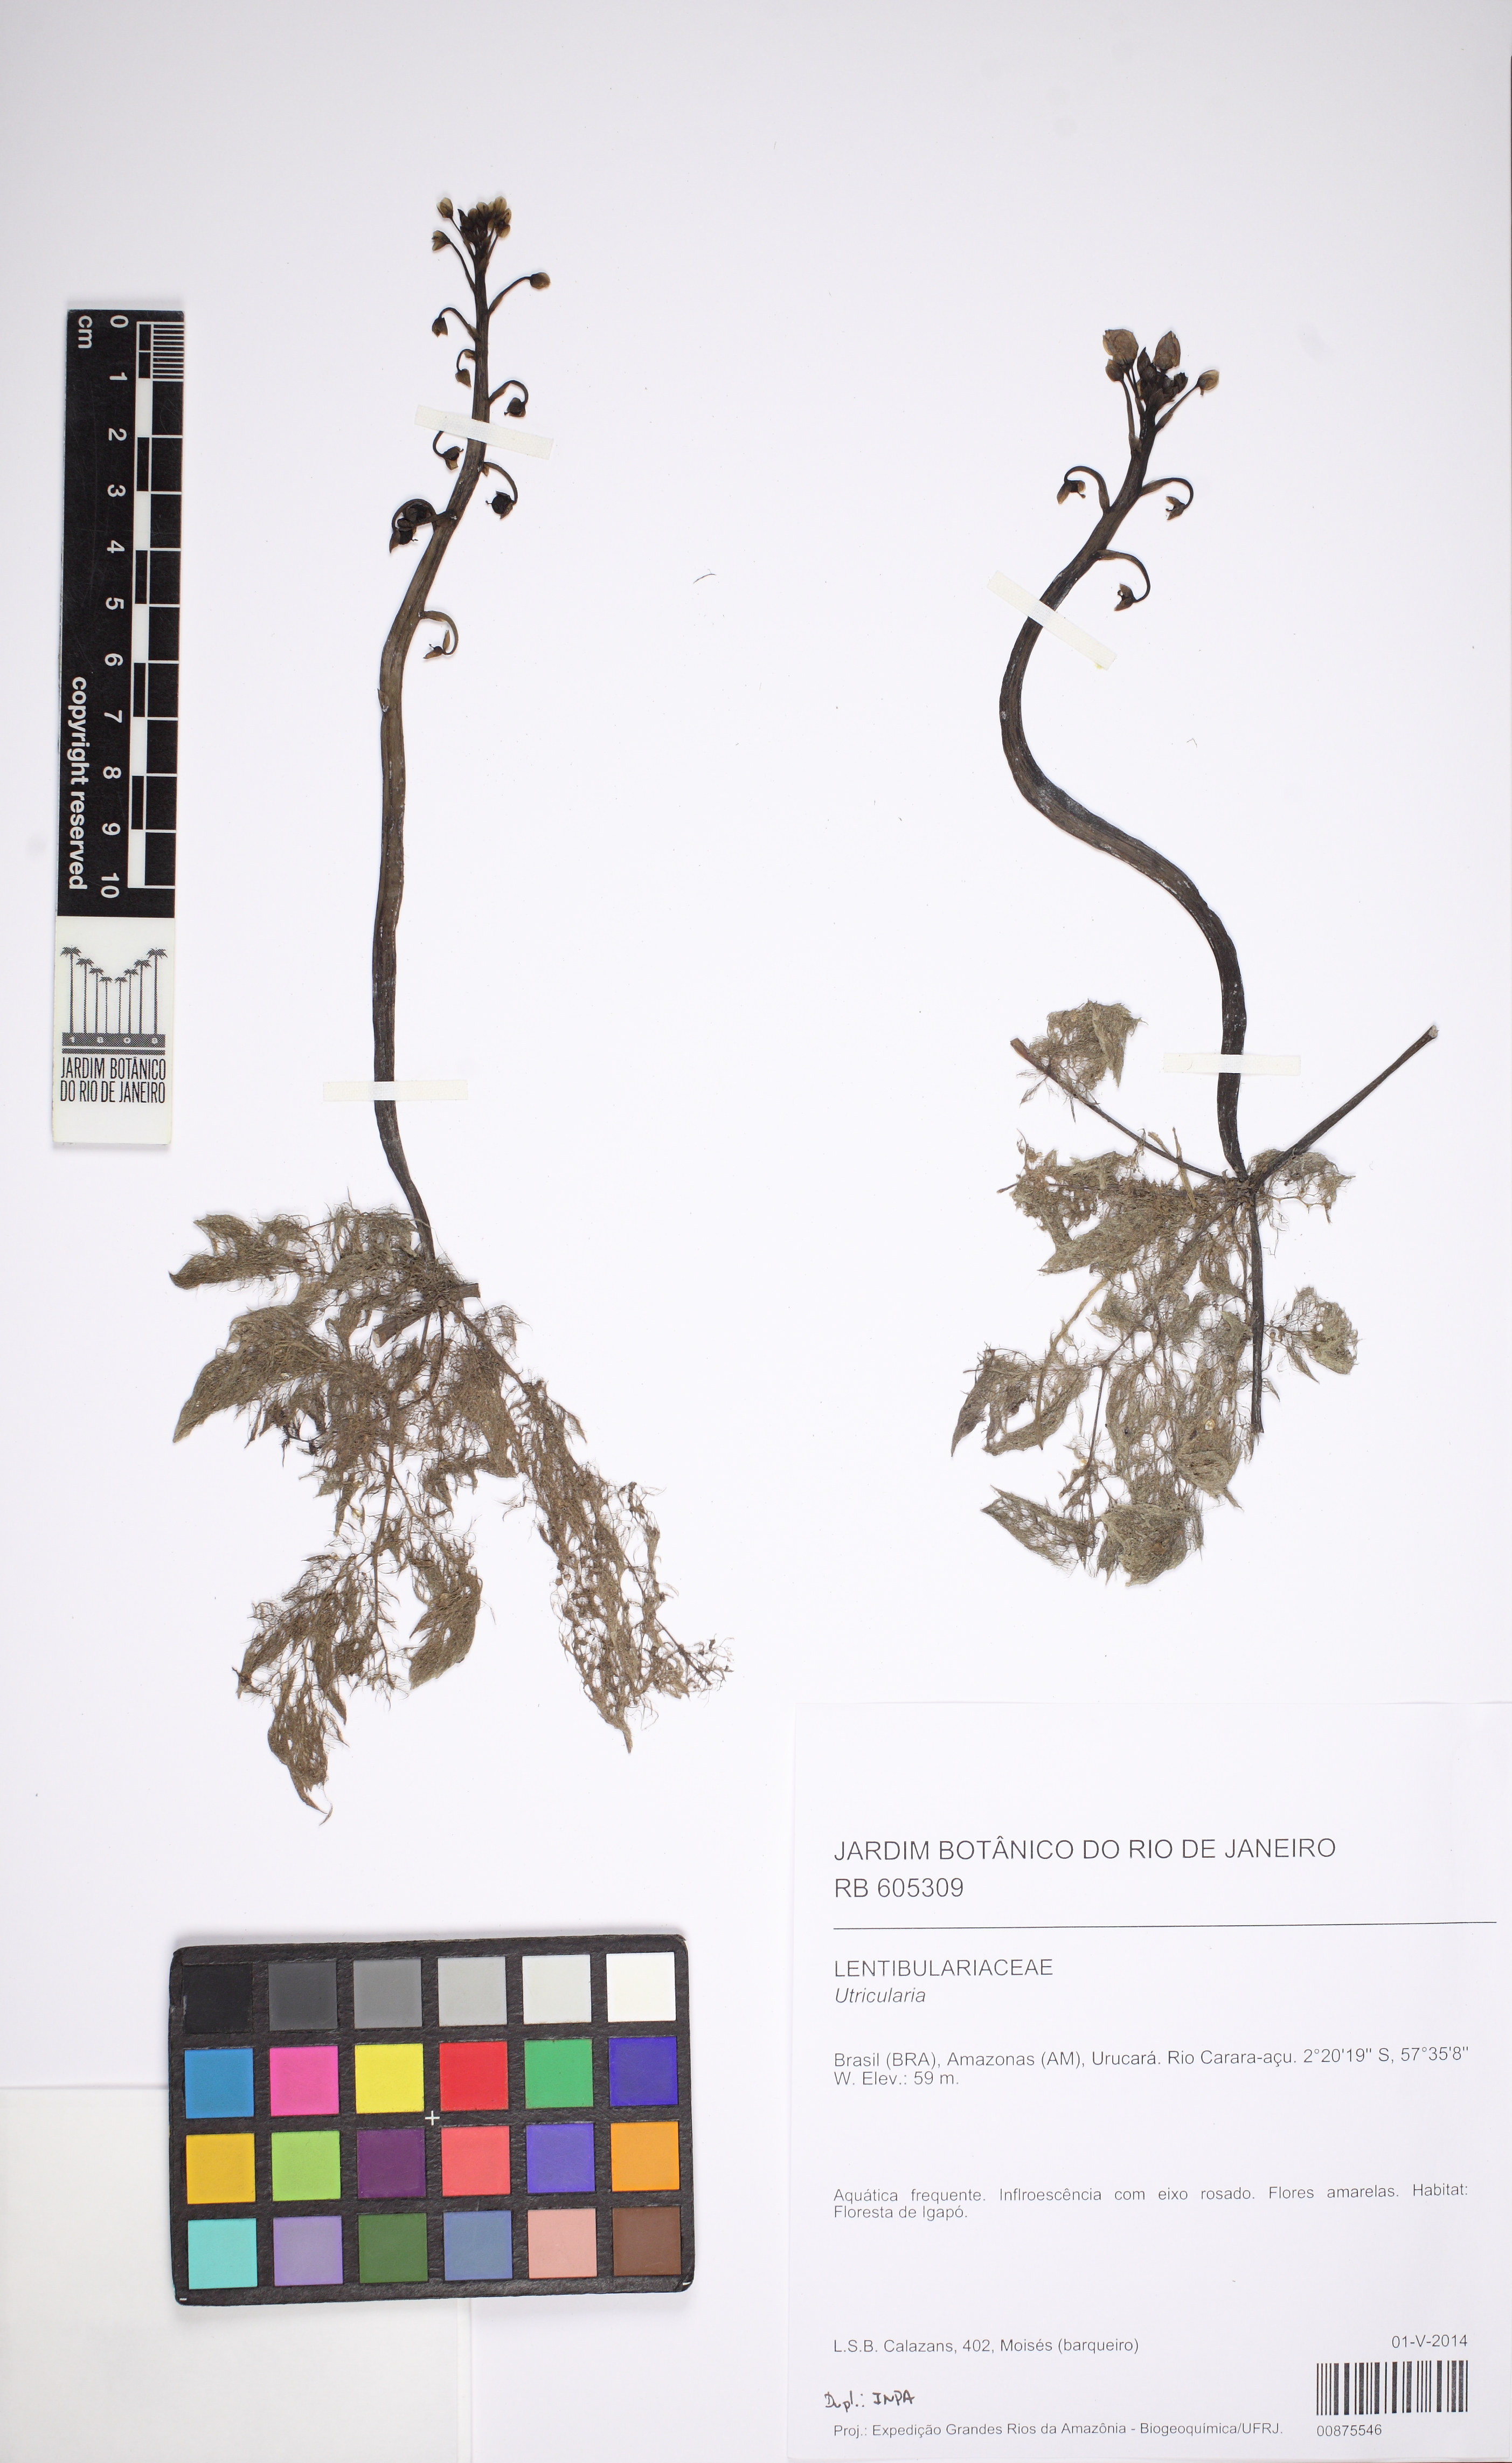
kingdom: Plantae
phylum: Tracheophyta
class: Magnoliopsida
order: Lamiales
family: Lentibulariaceae
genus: Utricularia
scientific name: Utricularia foliosa
